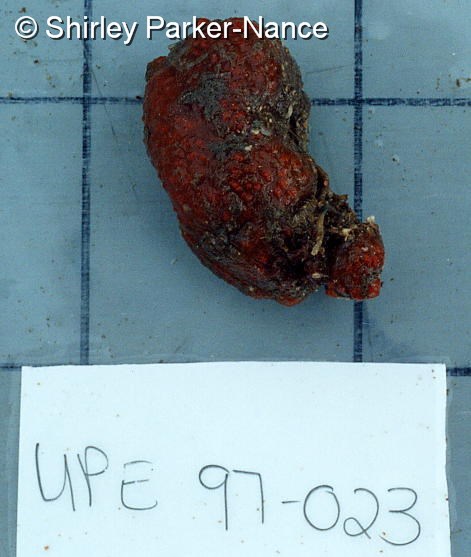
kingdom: Animalia
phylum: Chordata
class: Ascidiacea
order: Aplousobranchia
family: Polycitoridae
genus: Eudistoma
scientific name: Eudistoma
